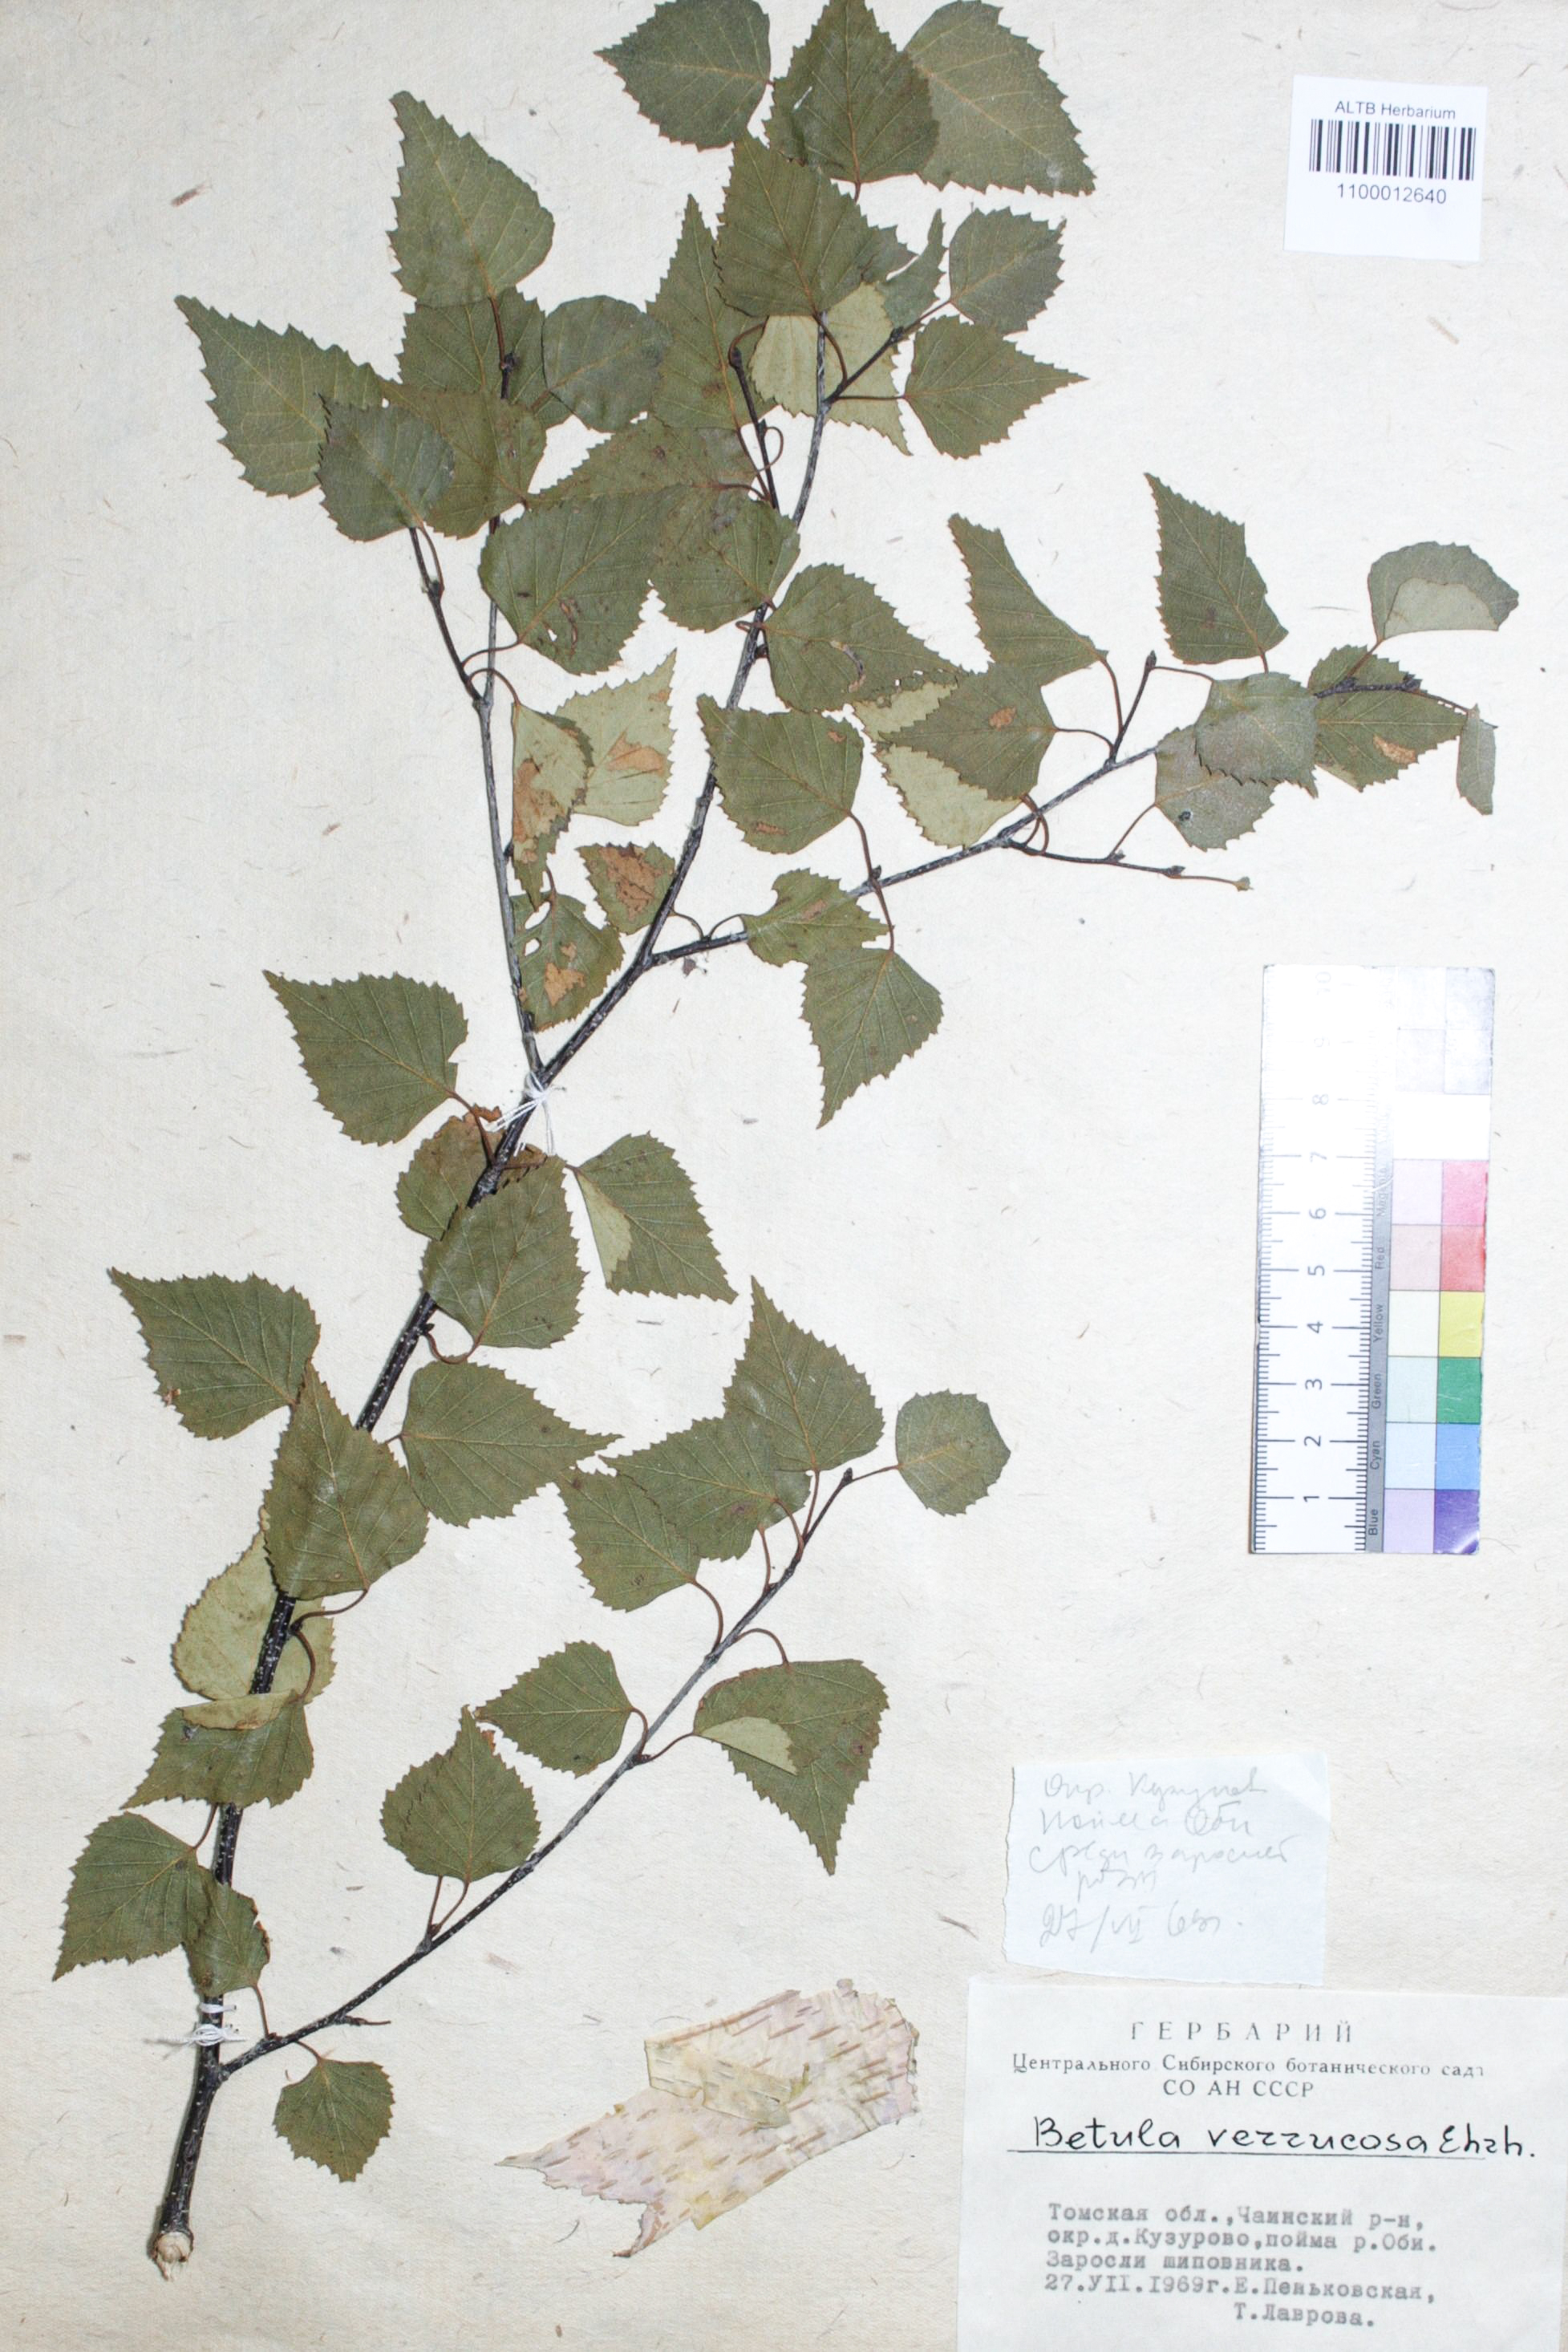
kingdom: Plantae
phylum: Tracheophyta
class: Magnoliopsida
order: Fagales
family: Betulaceae
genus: Betula
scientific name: Betula pendula
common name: Silver birch
